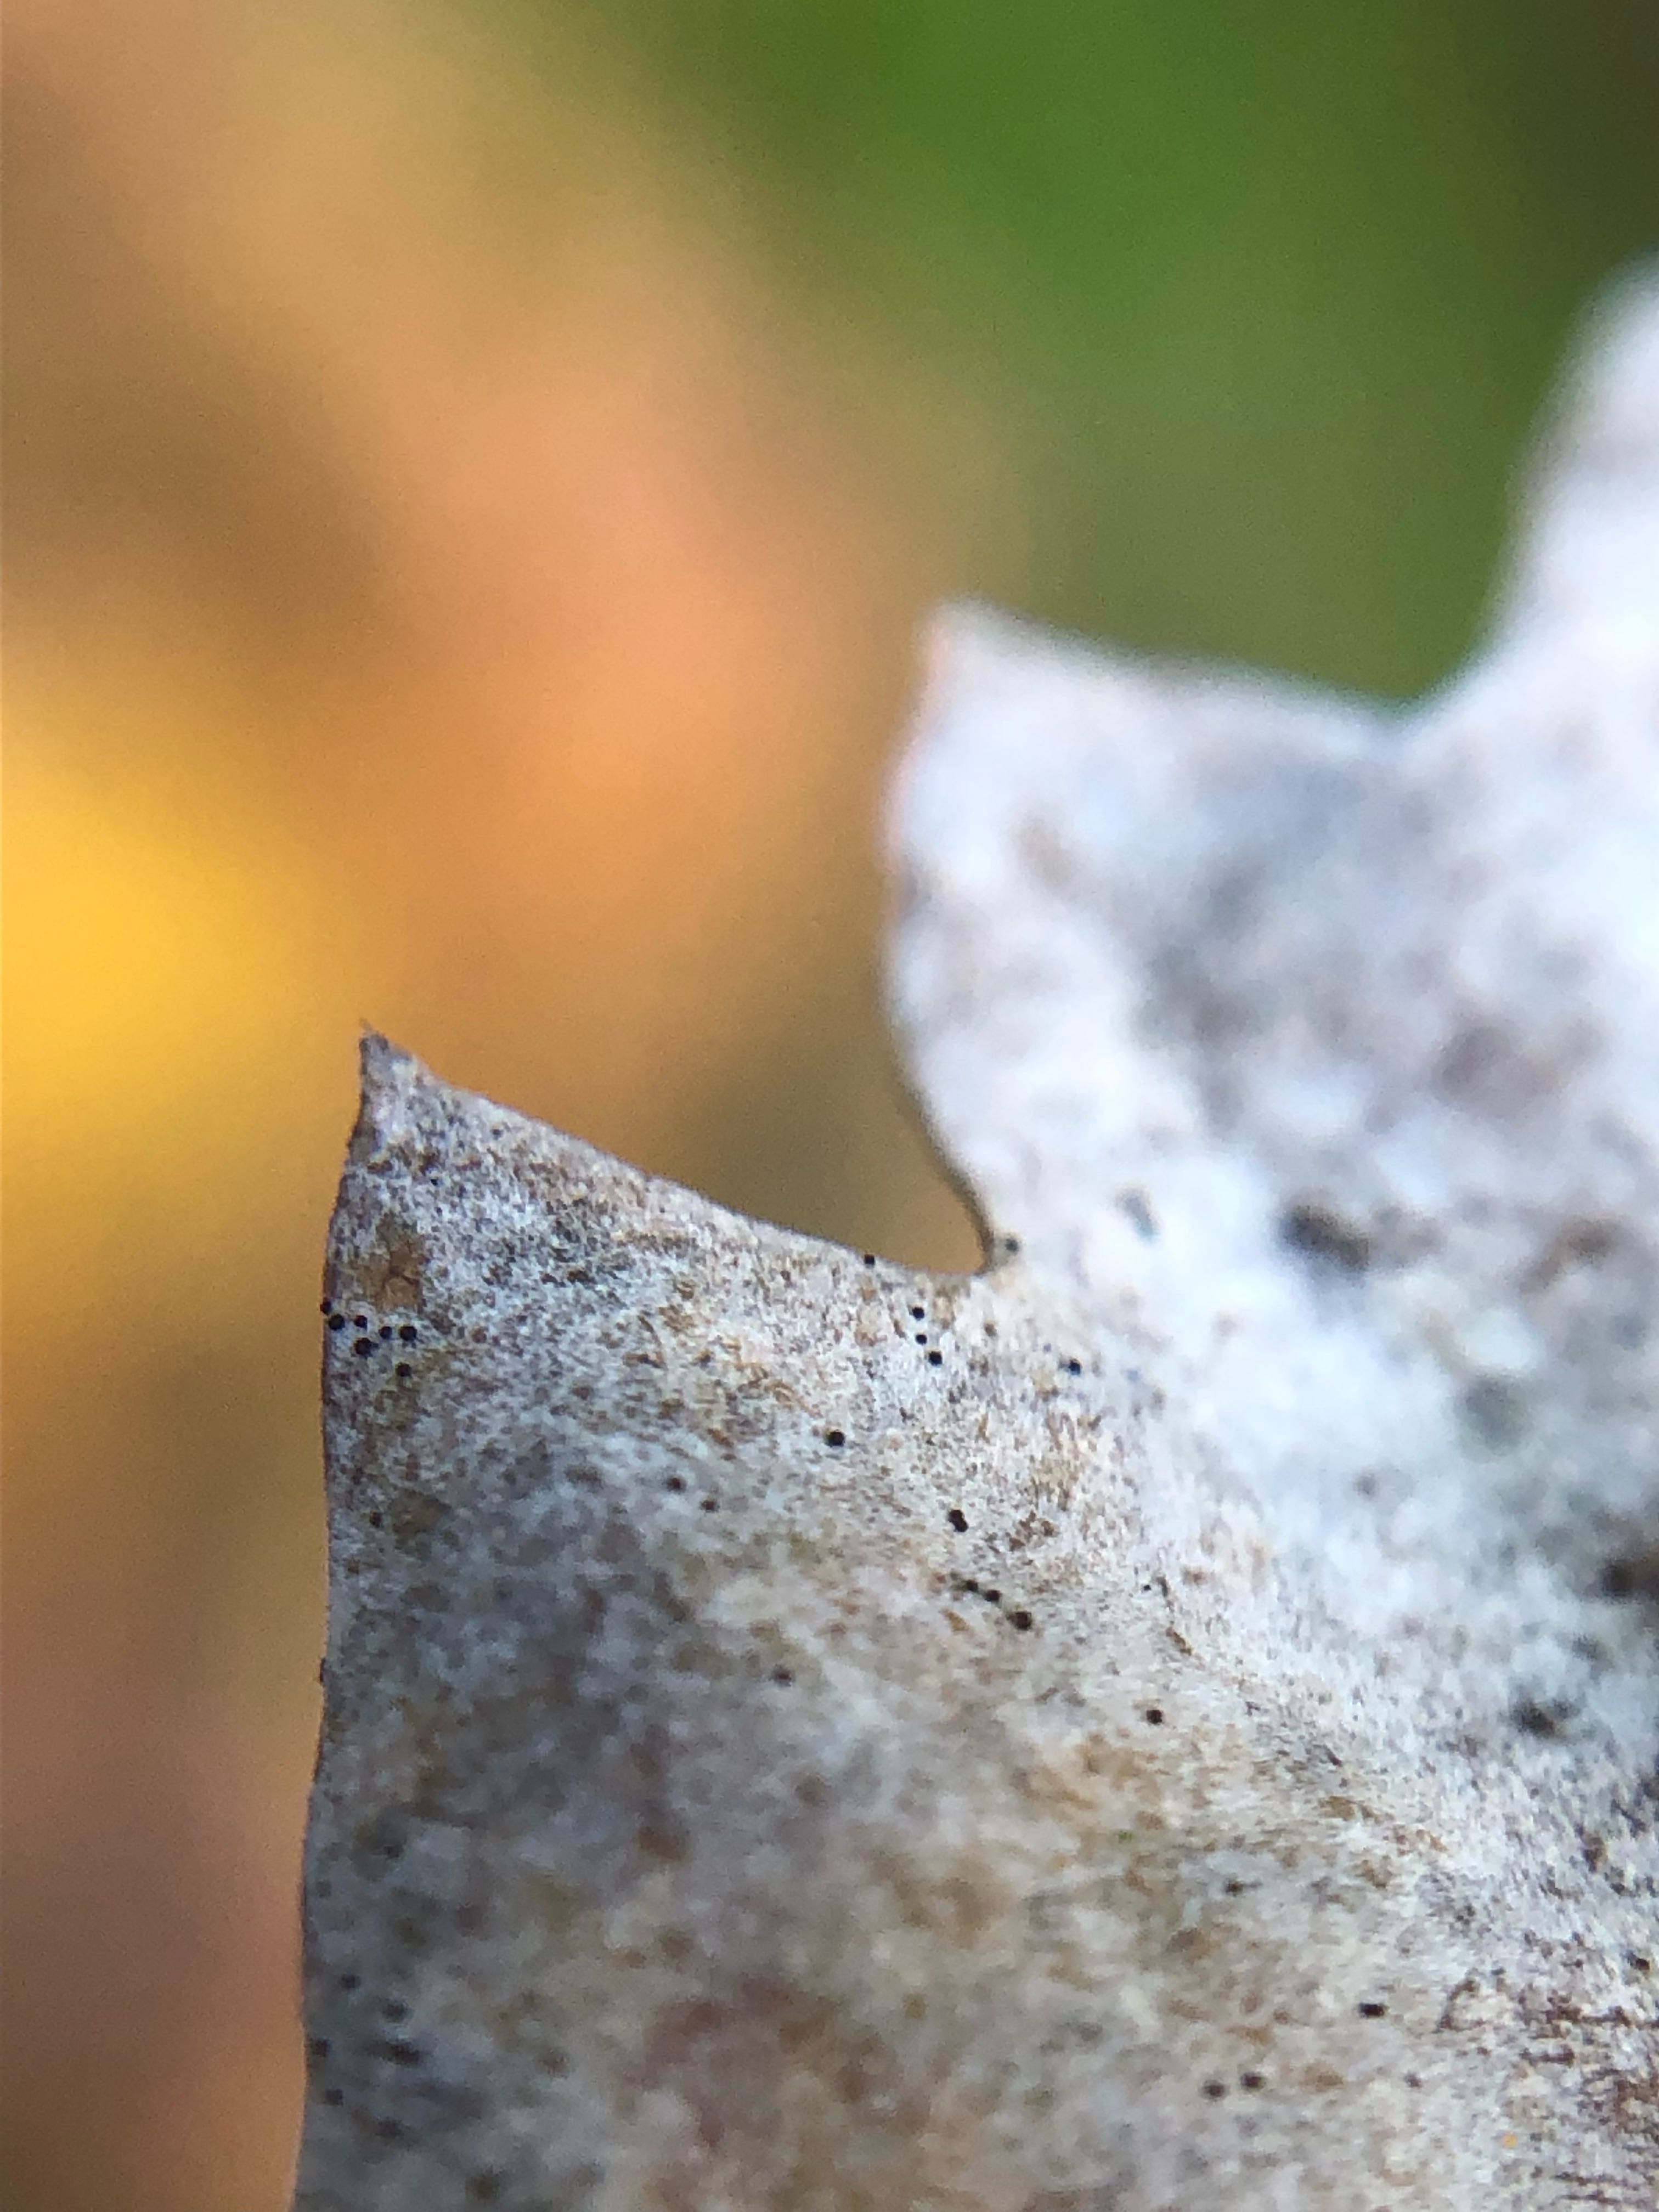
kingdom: Fungi
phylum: Ascomycota
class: Leotiomycetes
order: Helotiales
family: Erysiphaceae
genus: Erysiphe
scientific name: Erysiphe alphitoides
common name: ege-meldug
